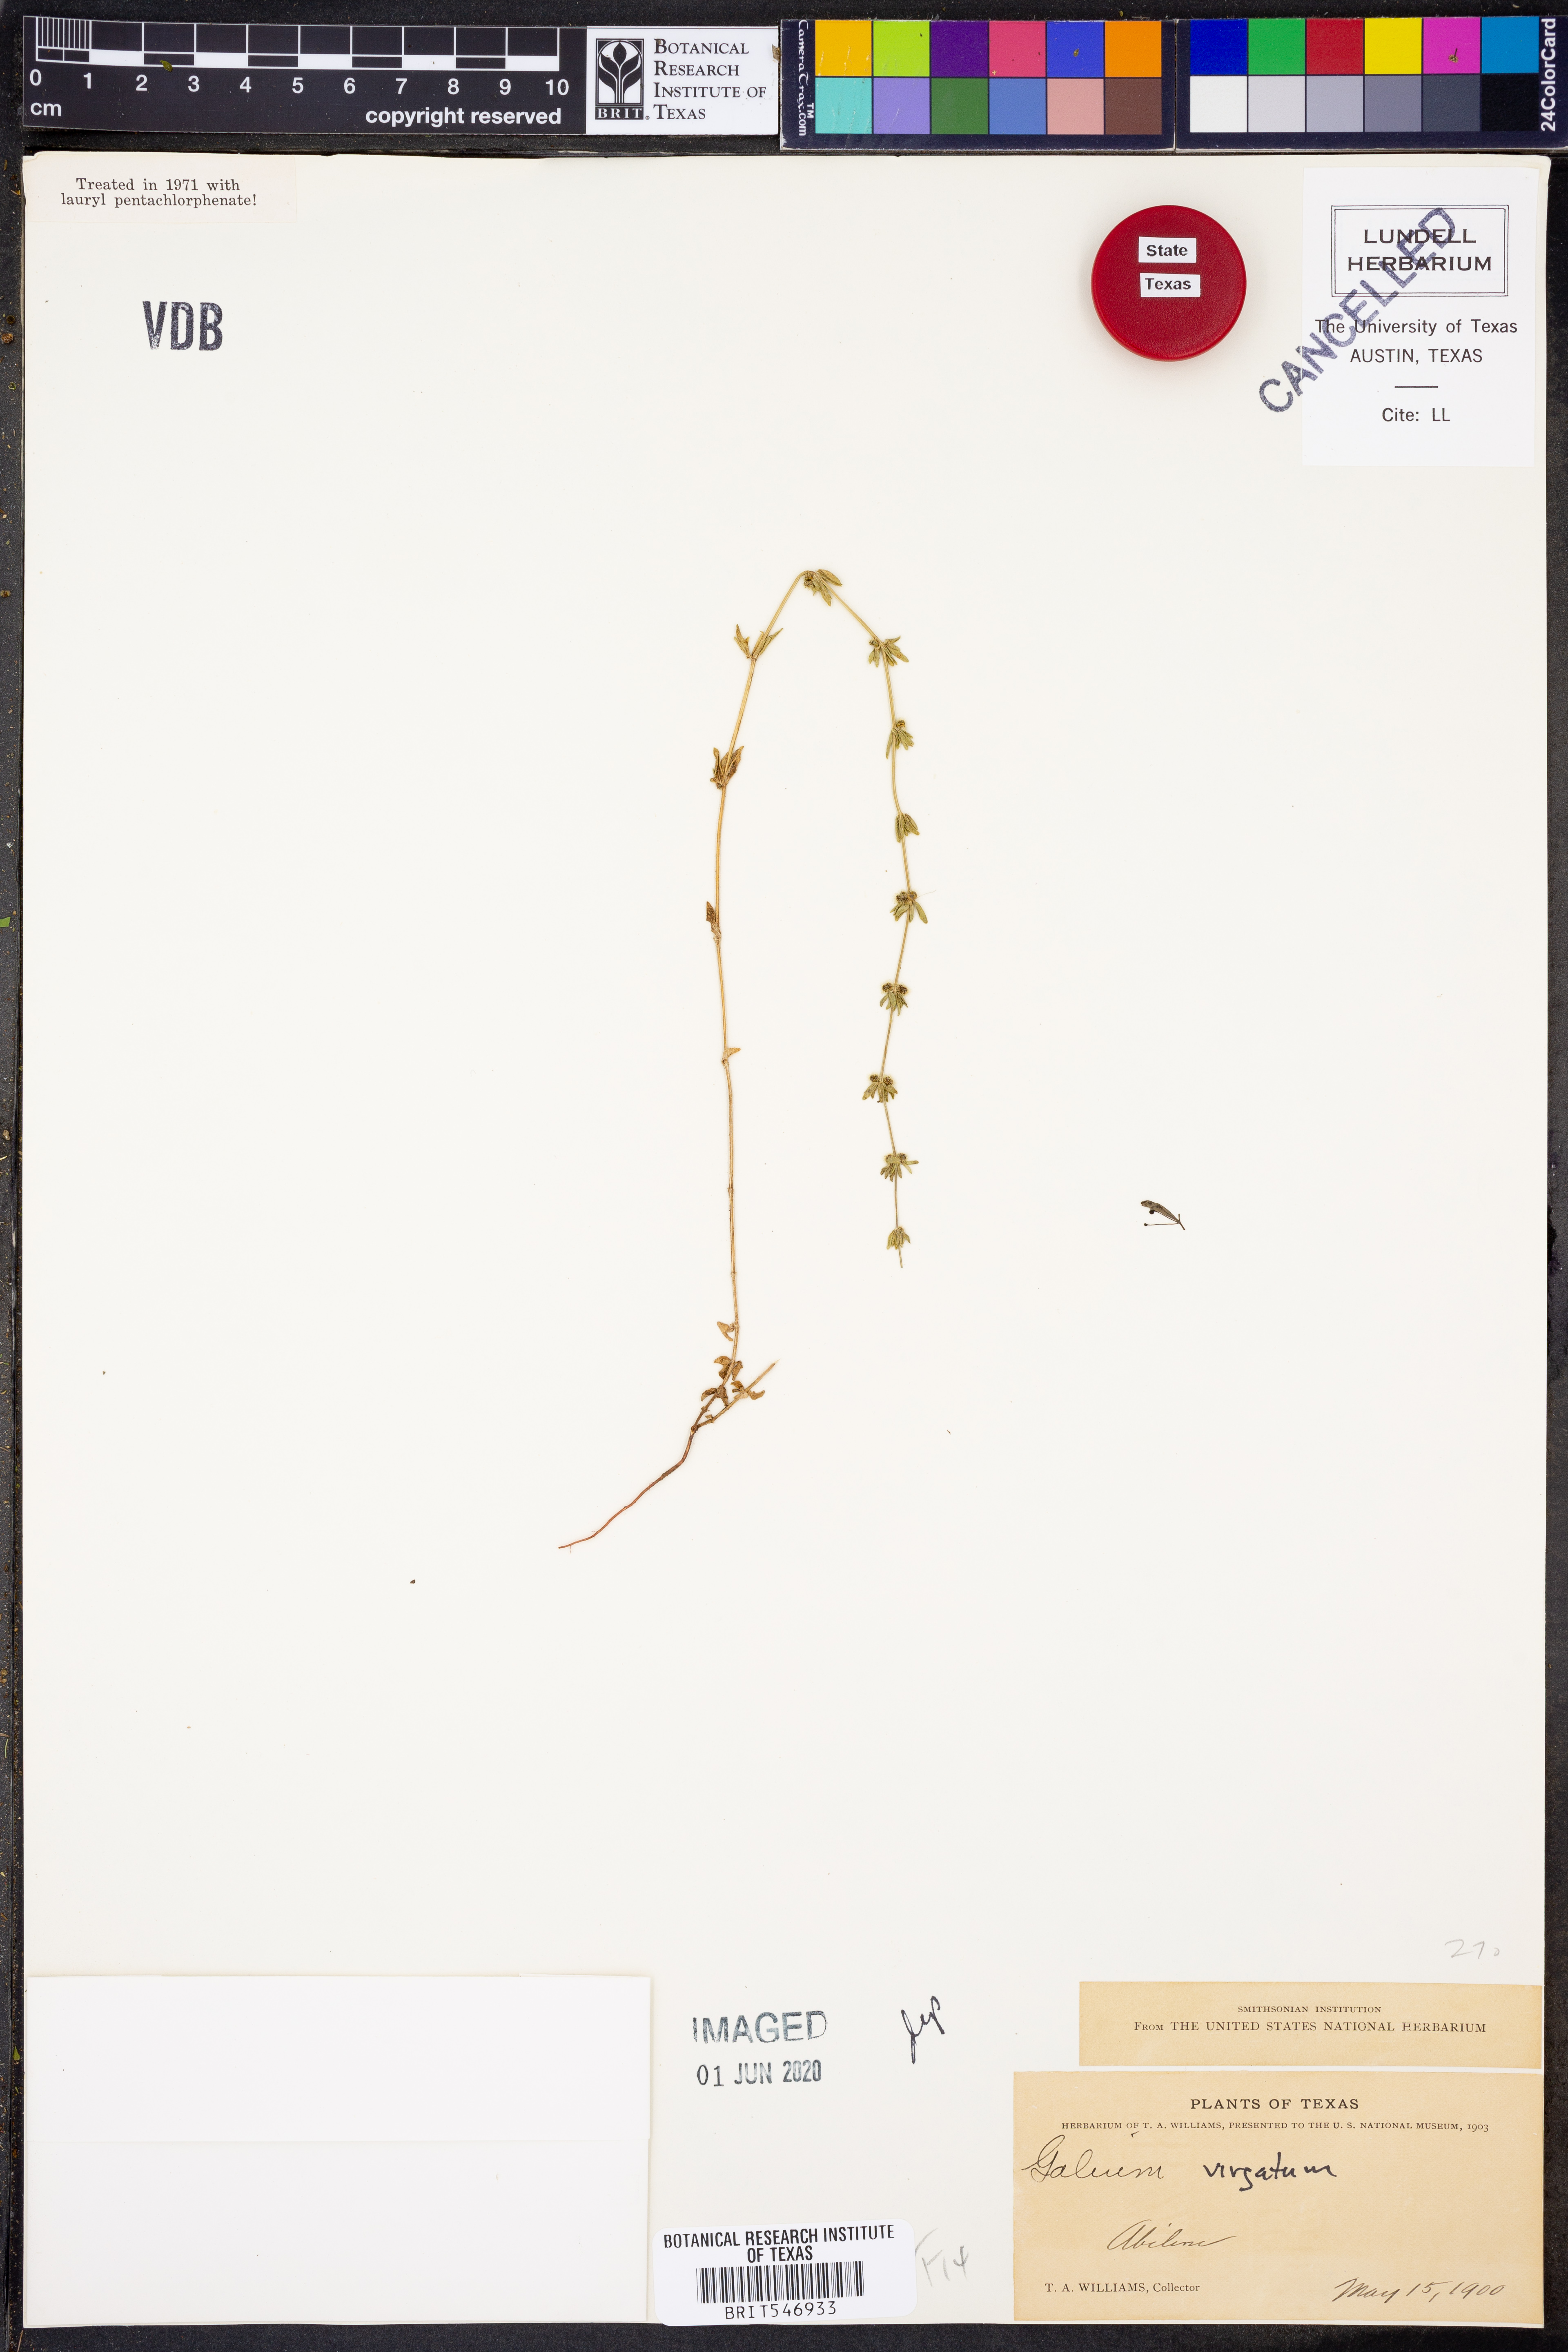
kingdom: Plantae
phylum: Tracheophyta
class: Magnoliopsida
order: Gentianales
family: Rubiaceae
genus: Galium
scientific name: Galium virgatum
